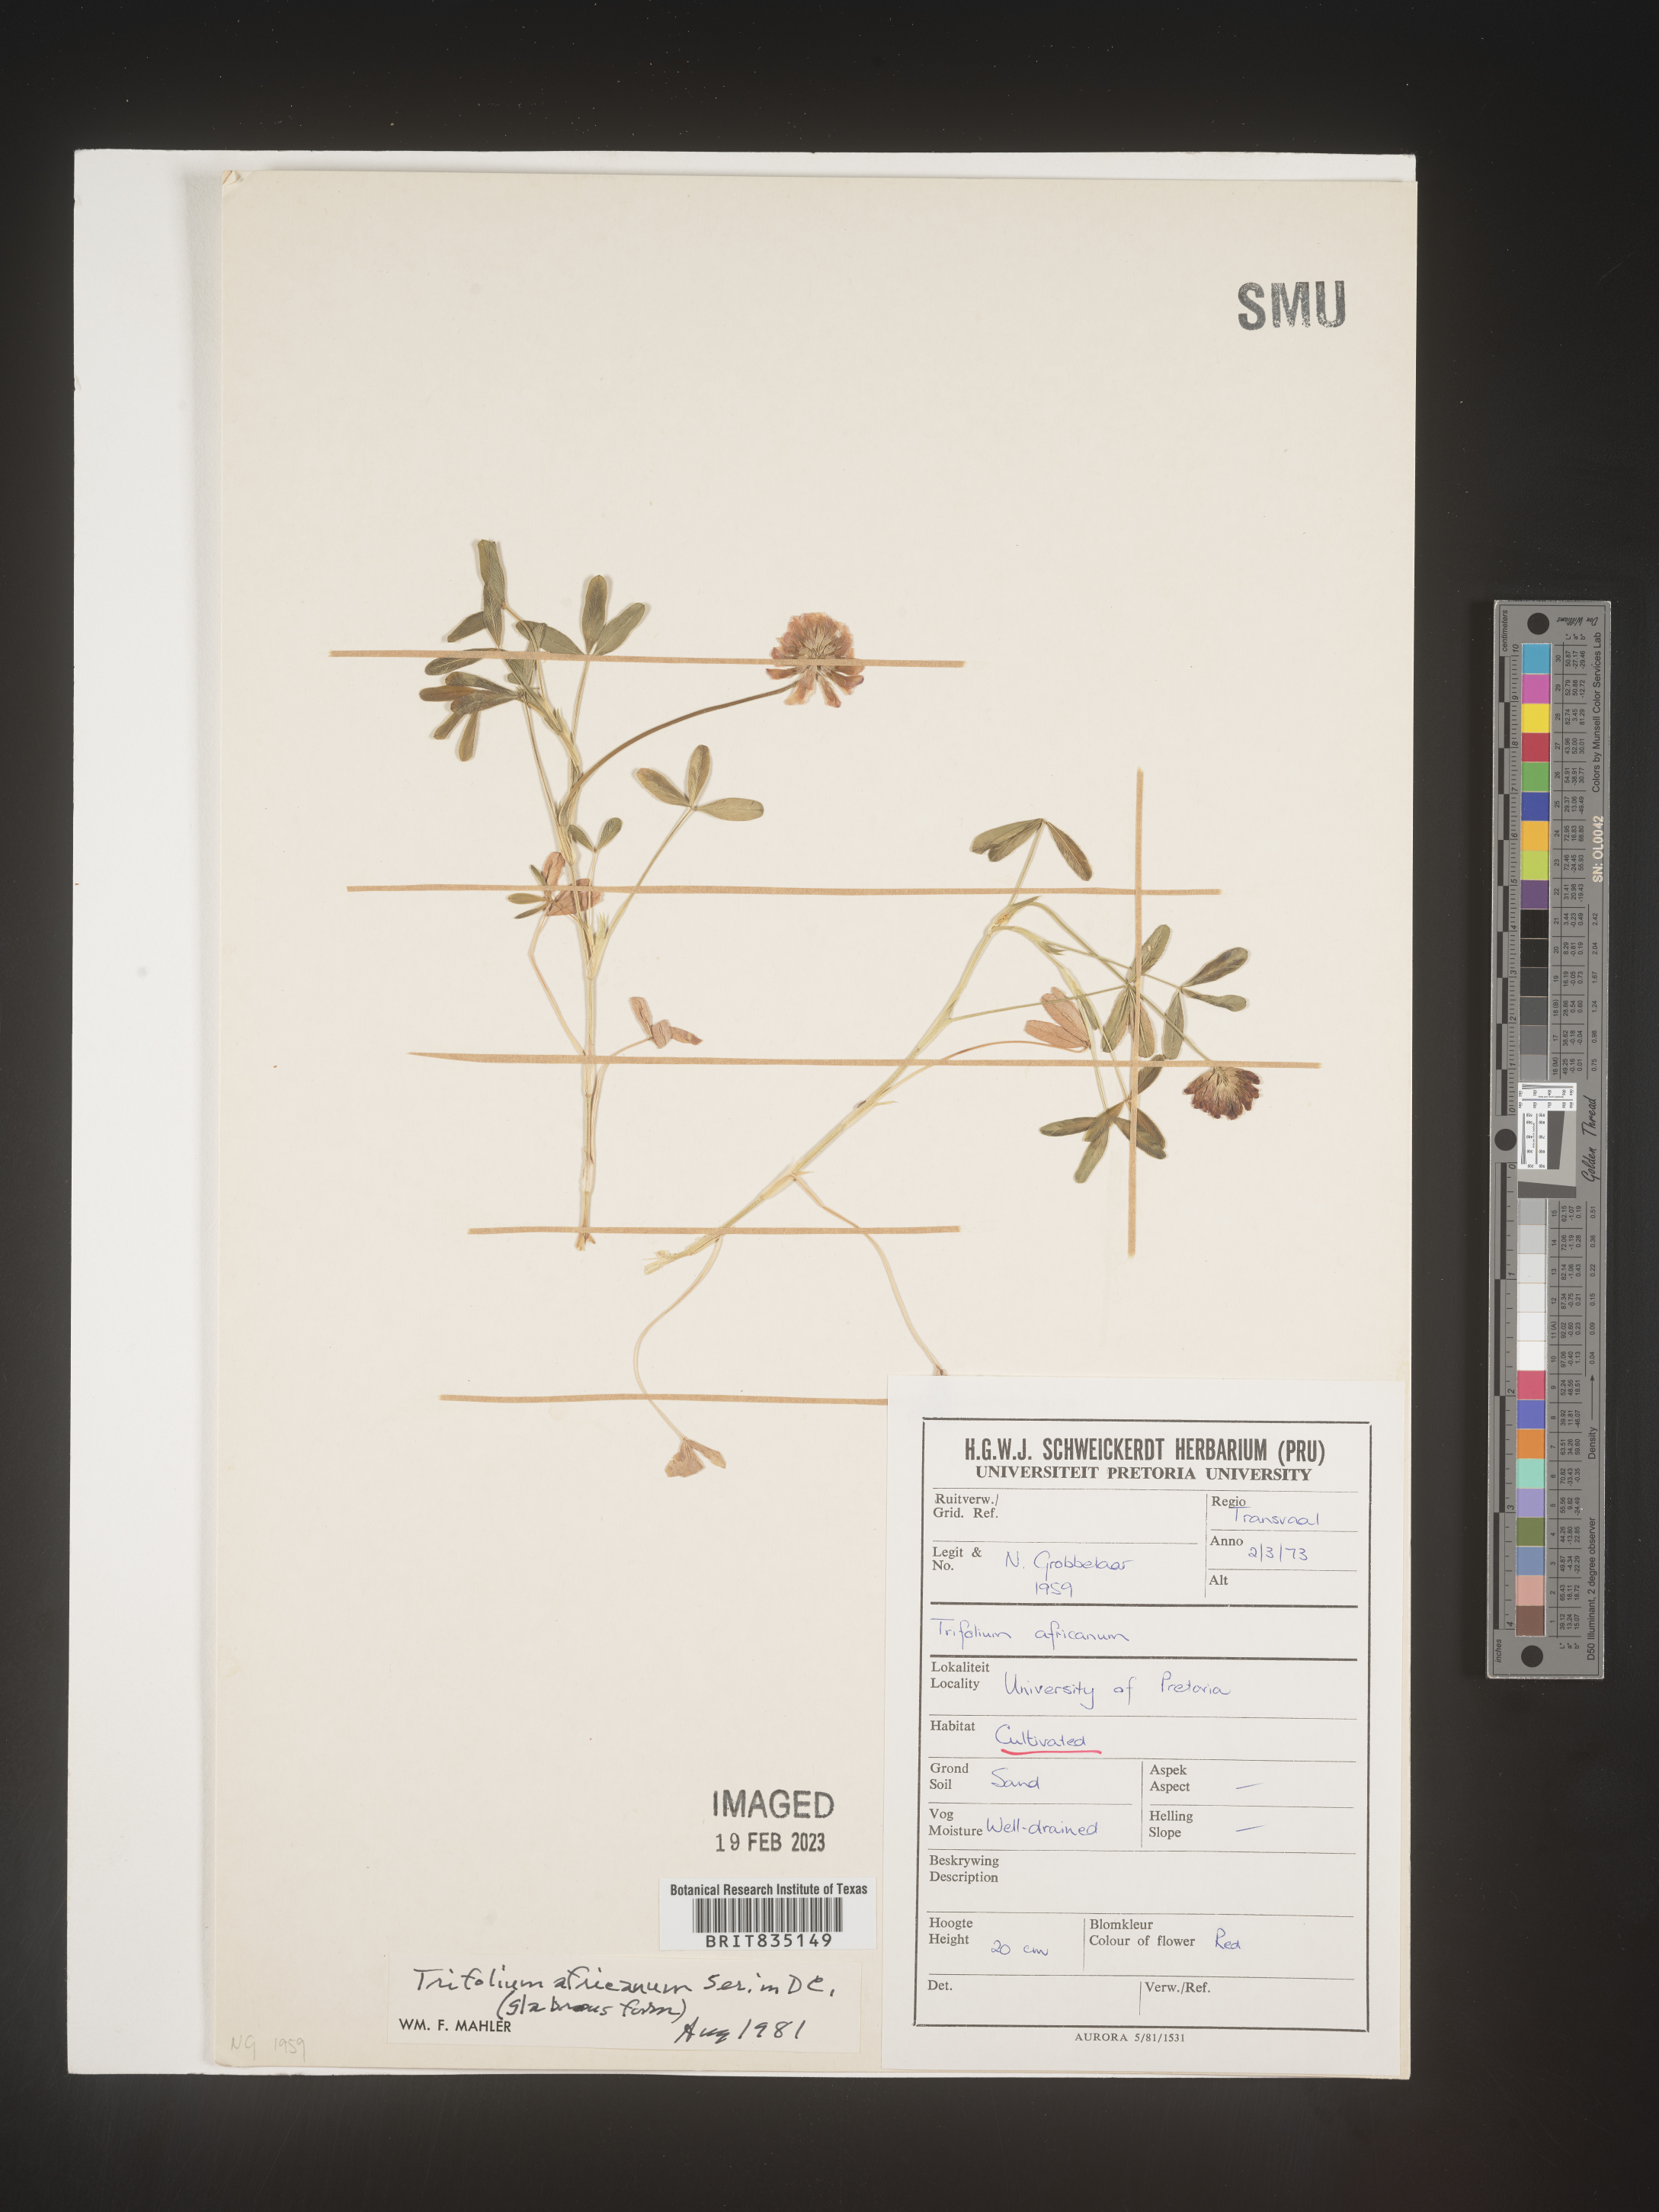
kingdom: Plantae
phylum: Tracheophyta
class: Magnoliopsida
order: Fabales
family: Fabaceae
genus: Trigonella
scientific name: Trigonella
